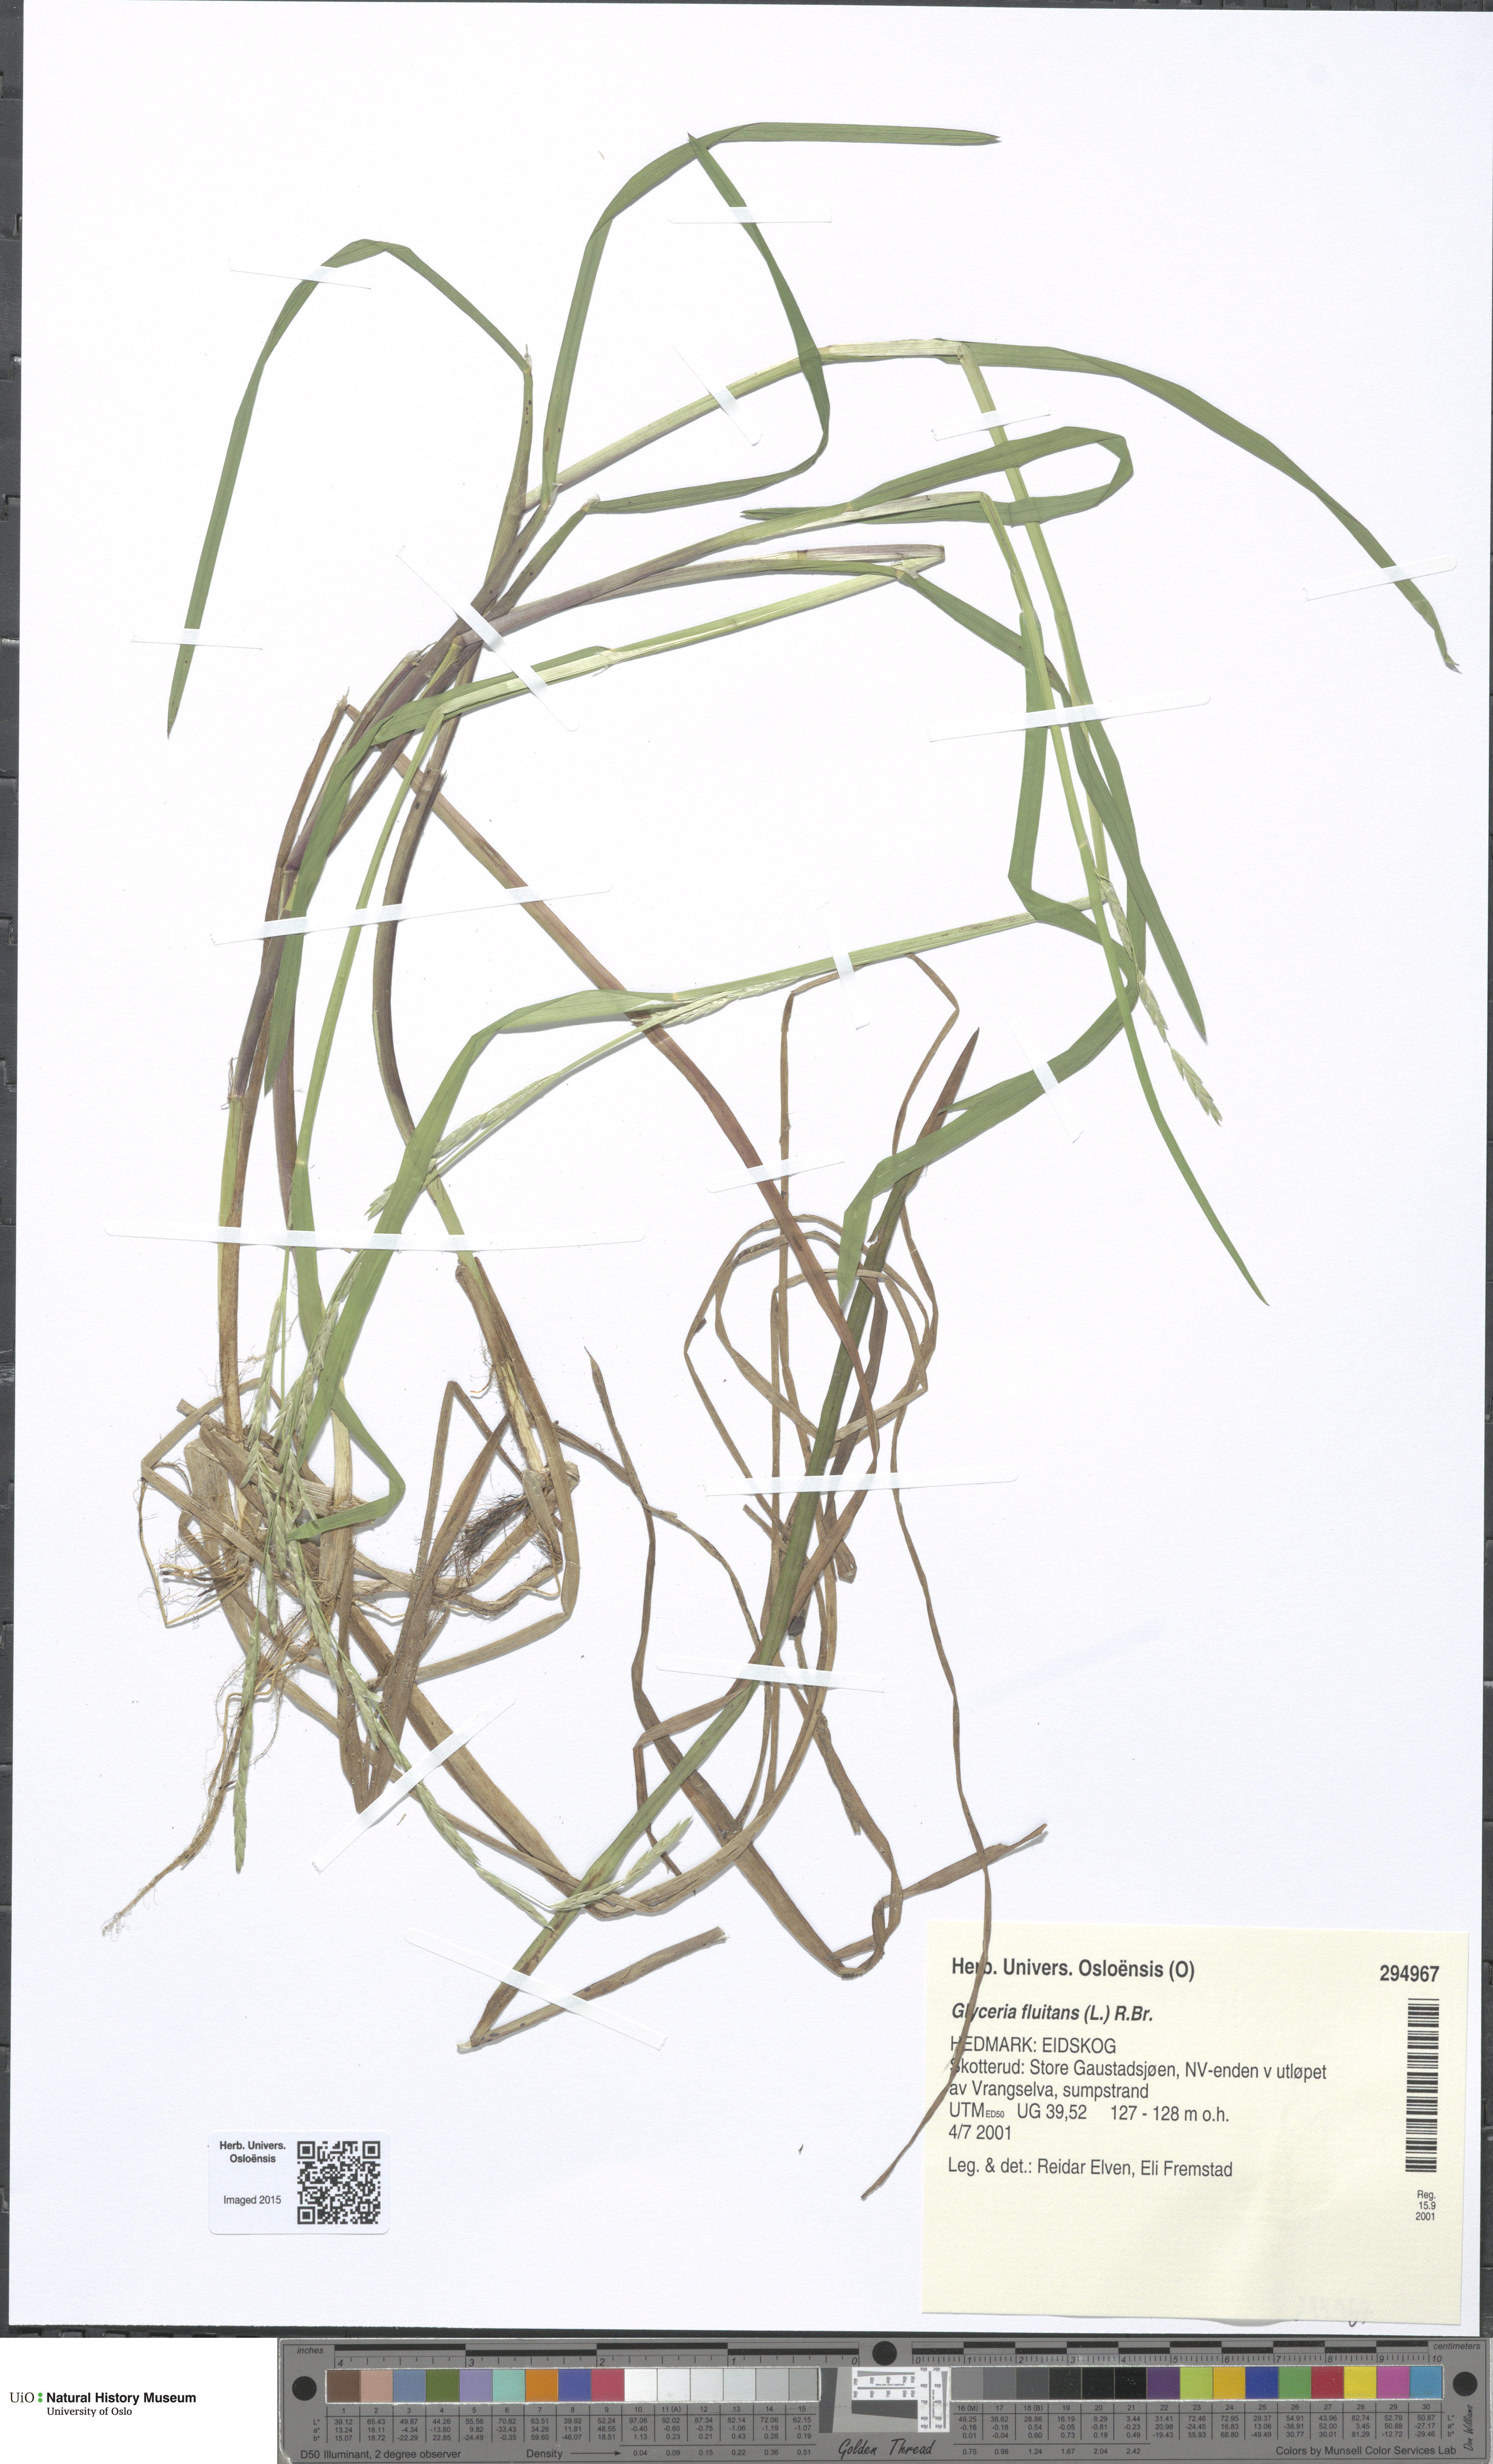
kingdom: Plantae
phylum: Tracheophyta
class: Liliopsida
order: Poales
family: Poaceae
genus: Glyceria
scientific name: Glyceria fluitans
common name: Floating sweet-grass
